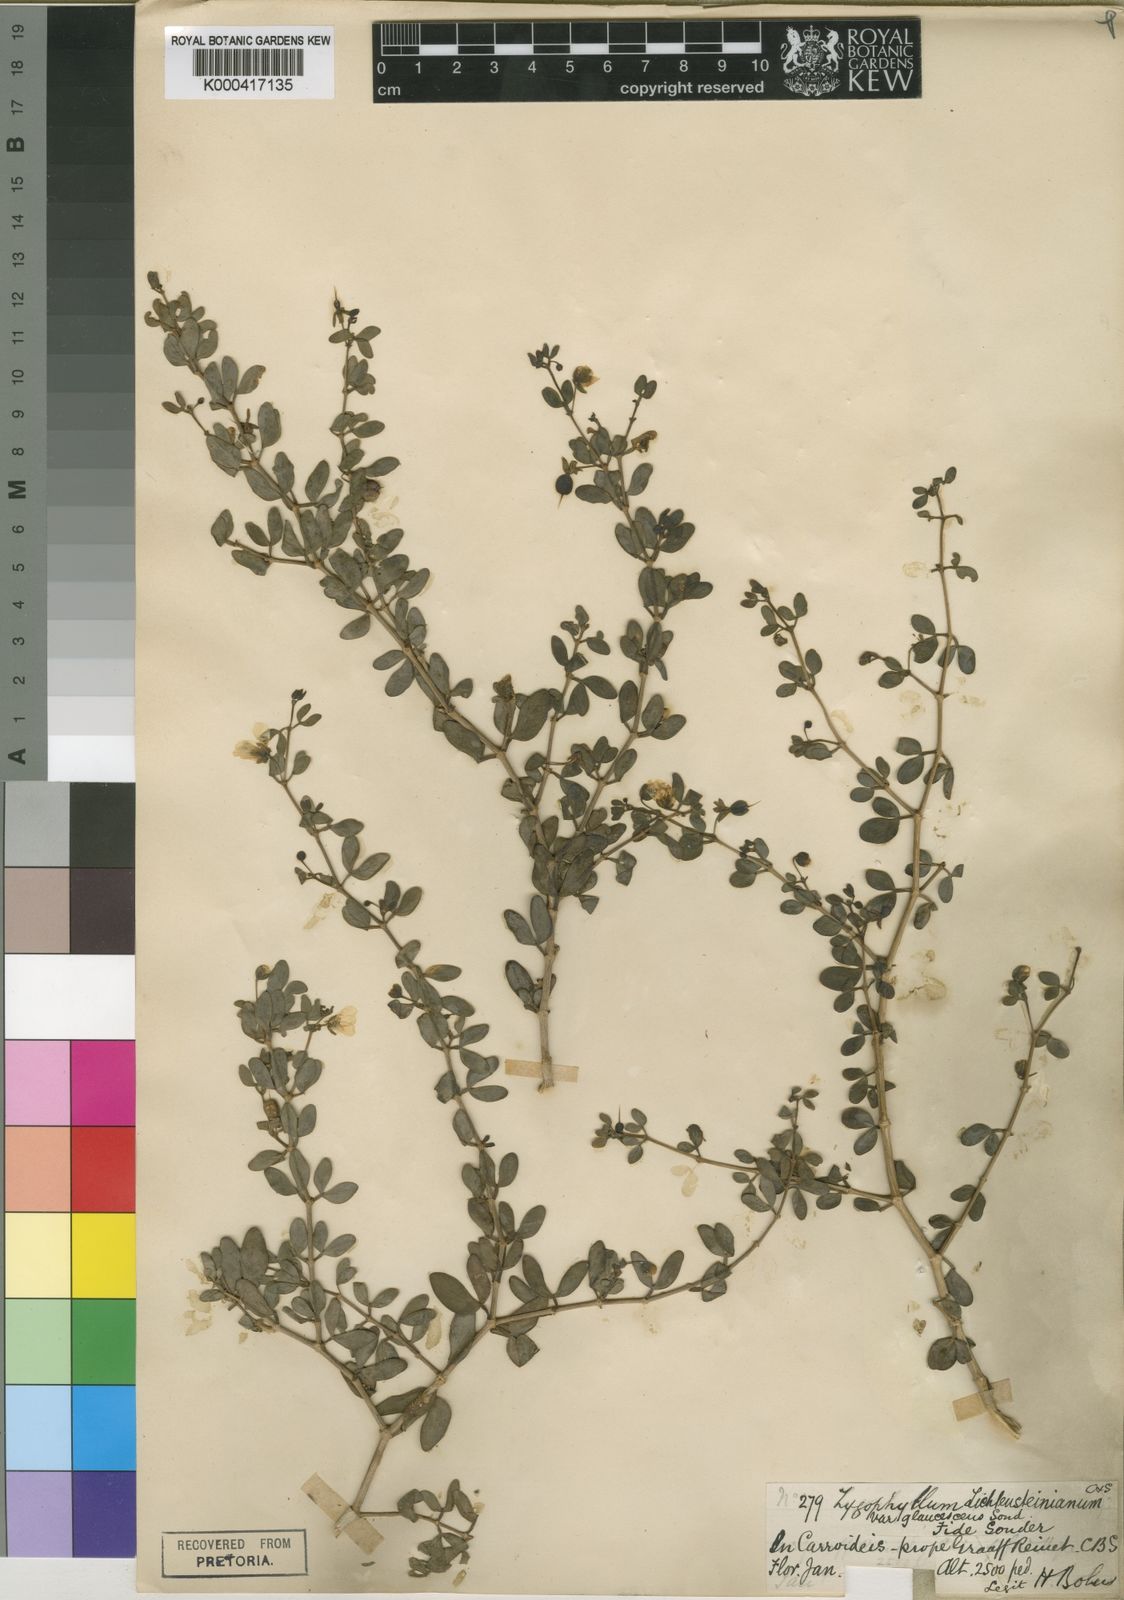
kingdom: Plantae
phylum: Tracheophyta
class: Magnoliopsida
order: Zygophyllales
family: Zygophyllaceae
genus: Roepera
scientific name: Roepera lichtensteiniana
